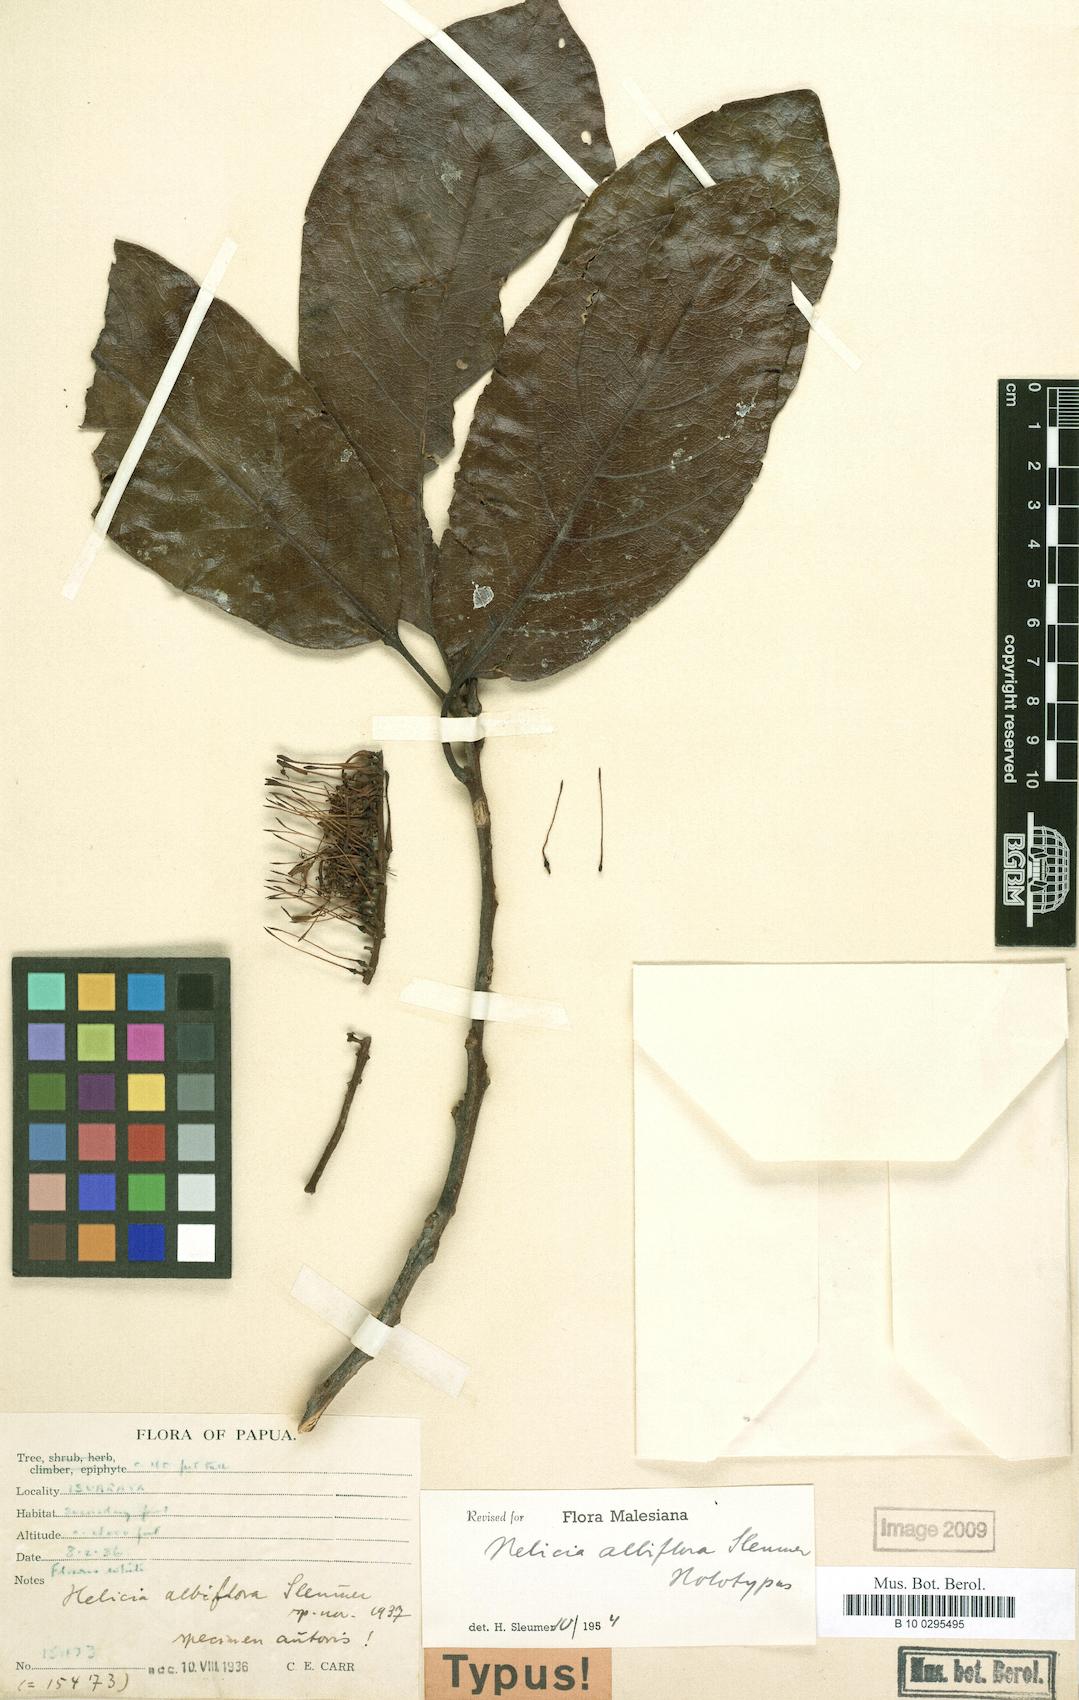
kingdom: Plantae
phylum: Tracheophyta
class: Magnoliopsida
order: Proteales
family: Proteaceae
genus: Helicia
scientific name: Helicia albiflora
